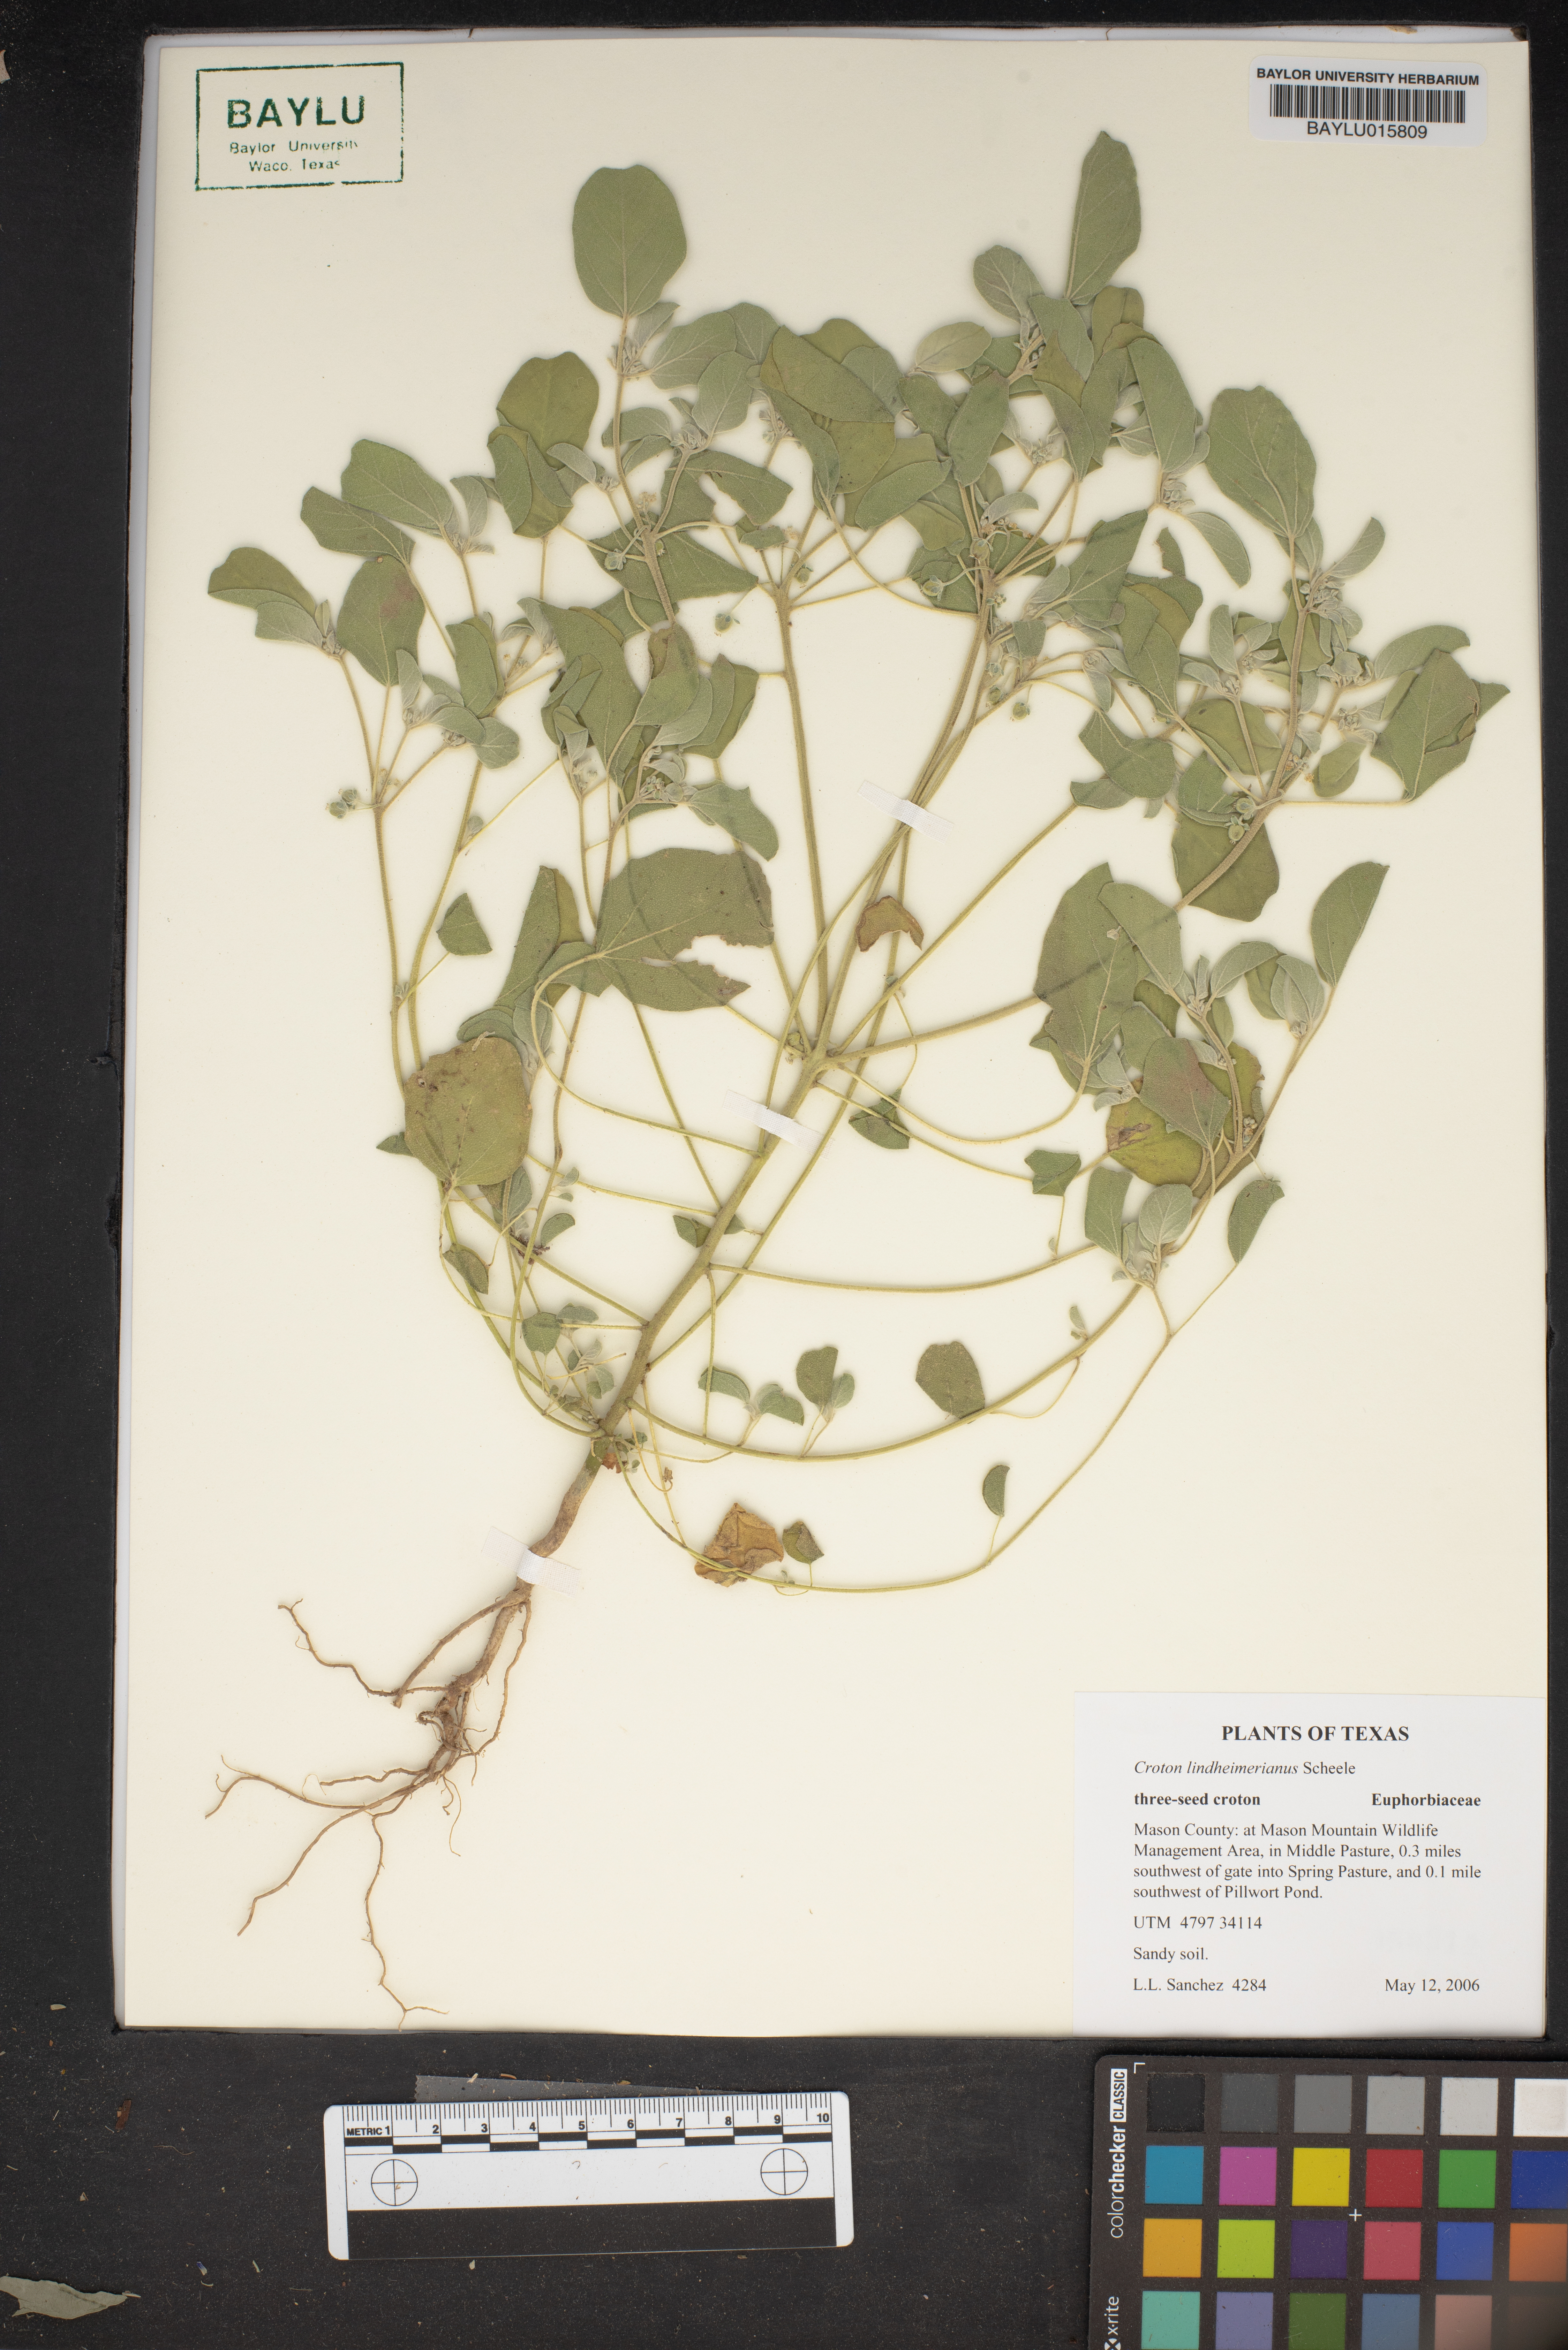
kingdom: Plantae
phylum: Tracheophyta
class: Magnoliopsida
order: Malpighiales
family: Euphorbiaceae
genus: Croton
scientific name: Croton lindheimerianus
